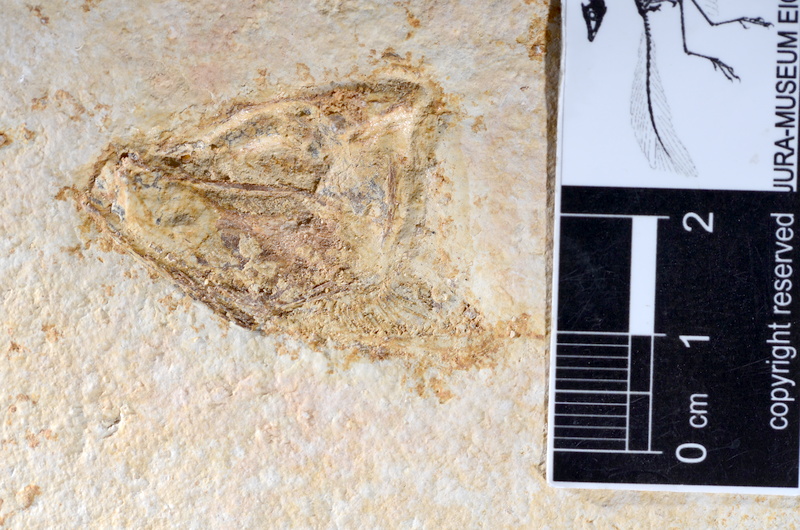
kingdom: Animalia
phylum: Chordata
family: Ascalaboidae
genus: Tharsis
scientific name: Tharsis dubius
